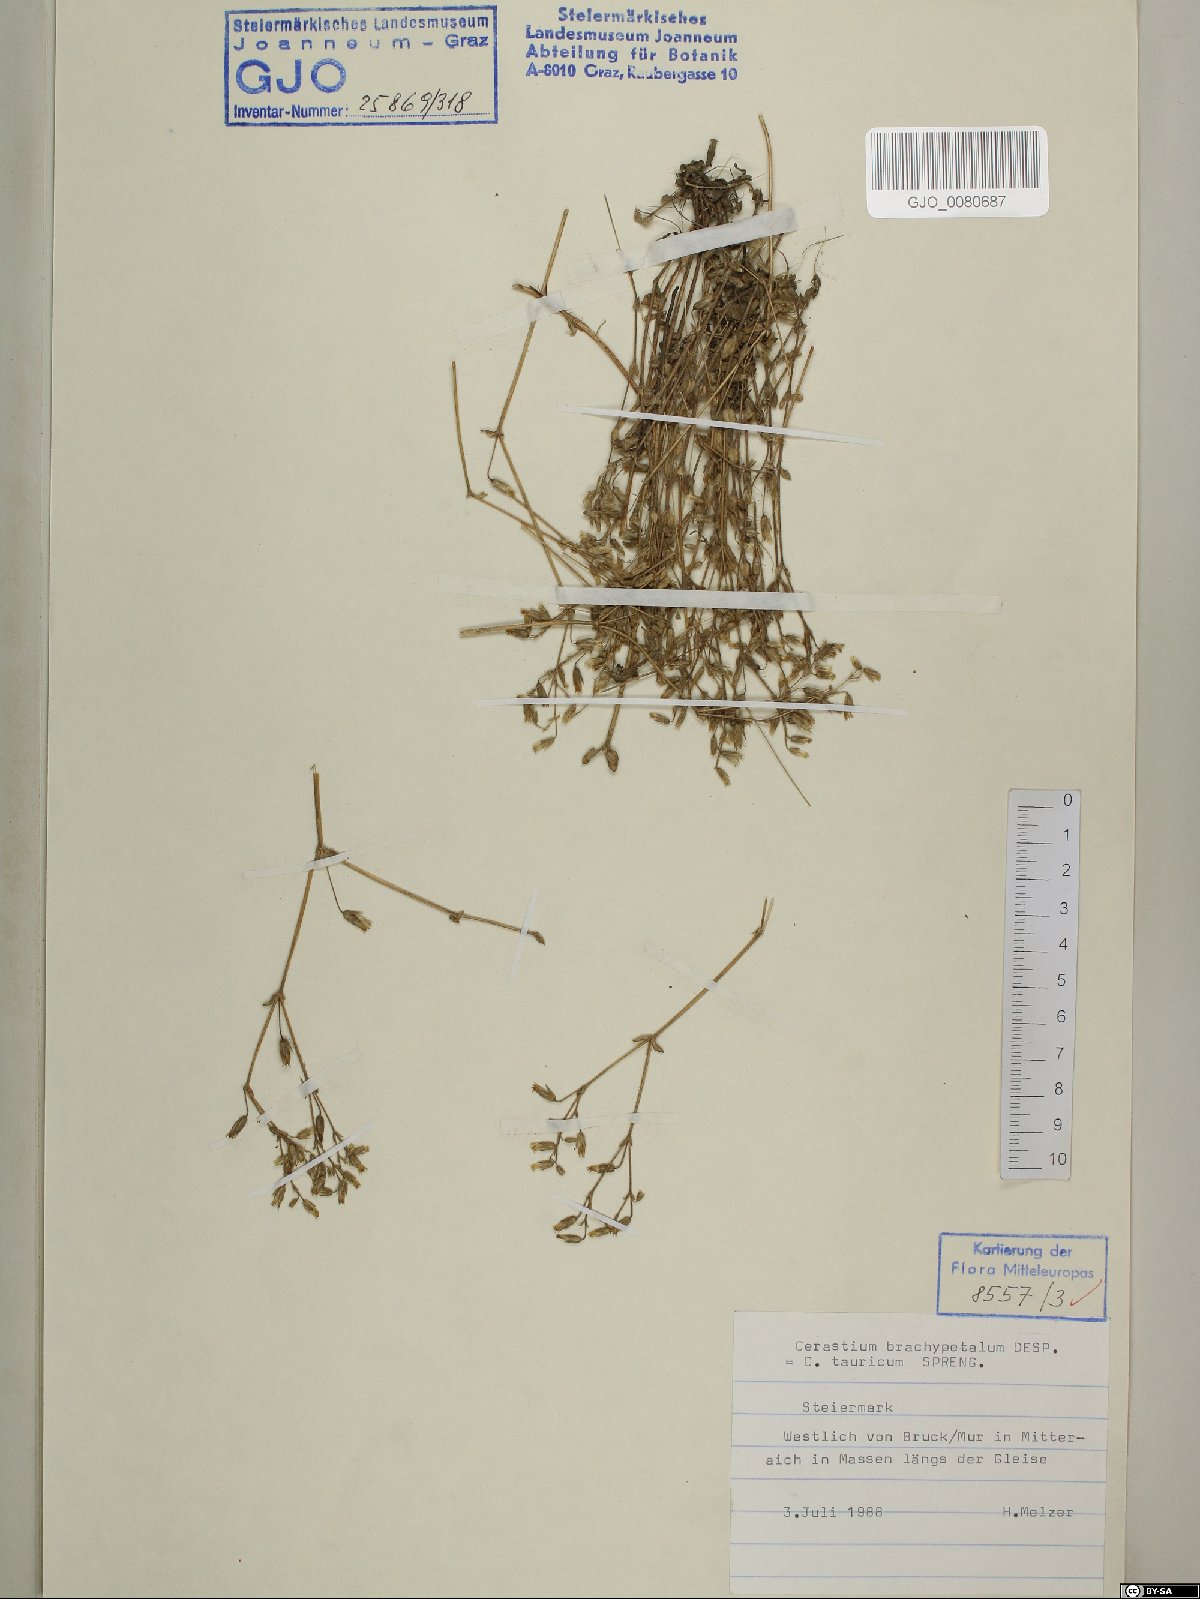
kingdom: Plantae
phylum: Tracheophyta
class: Magnoliopsida
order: Caryophyllales
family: Caryophyllaceae
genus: Cerastium
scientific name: Cerastium brachypetalum
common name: Grey mouse-ear
